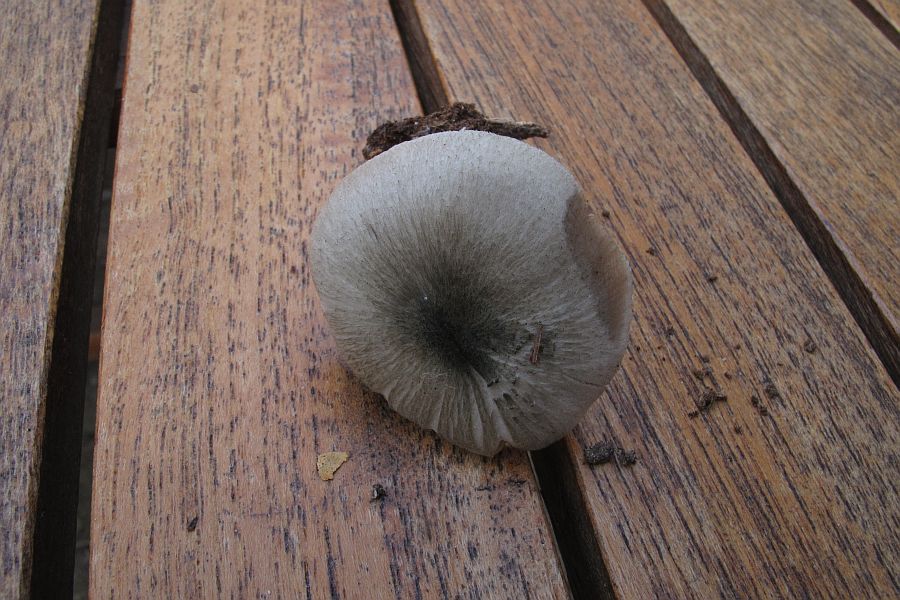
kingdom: Fungi
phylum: Basidiomycota
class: Agaricomycetes
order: Agaricales
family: Pluteaceae
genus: Pluteus
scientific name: Pluteus salicinus
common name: stiv skærmhat
